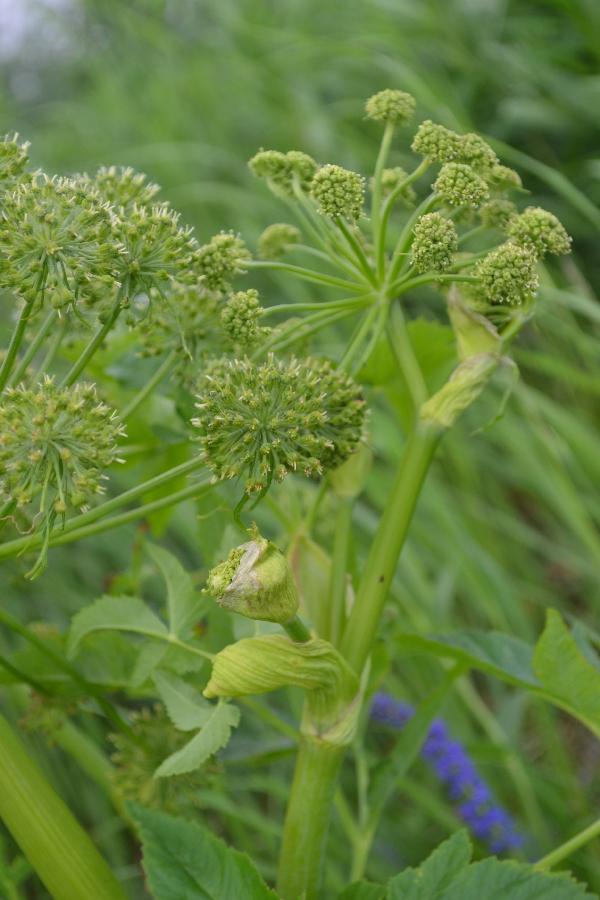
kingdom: Plantae
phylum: Tracheophyta
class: Magnoliopsida
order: Apiales
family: Apiaceae
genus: Angelica
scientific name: Angelica decurrens
